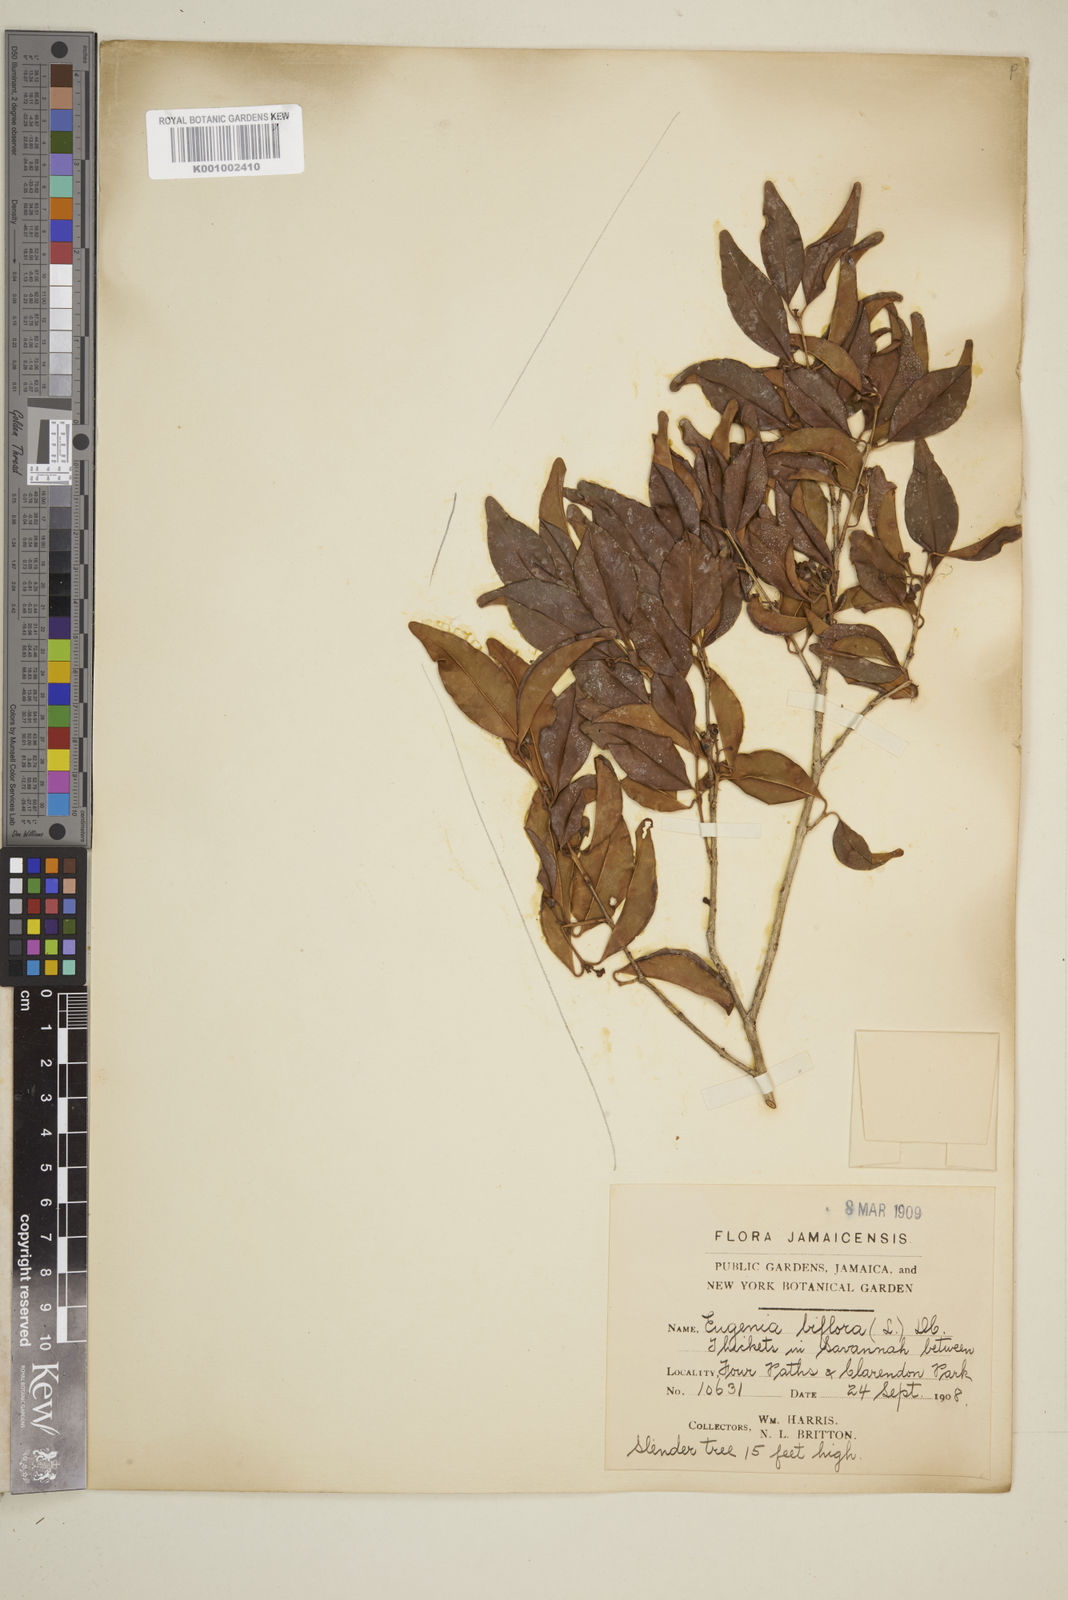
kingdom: Plantae
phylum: Tracheophyta
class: Magnoliopsida
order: Myrtales
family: Myrtaceae
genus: Eugenia
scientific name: Eugenia biflora
